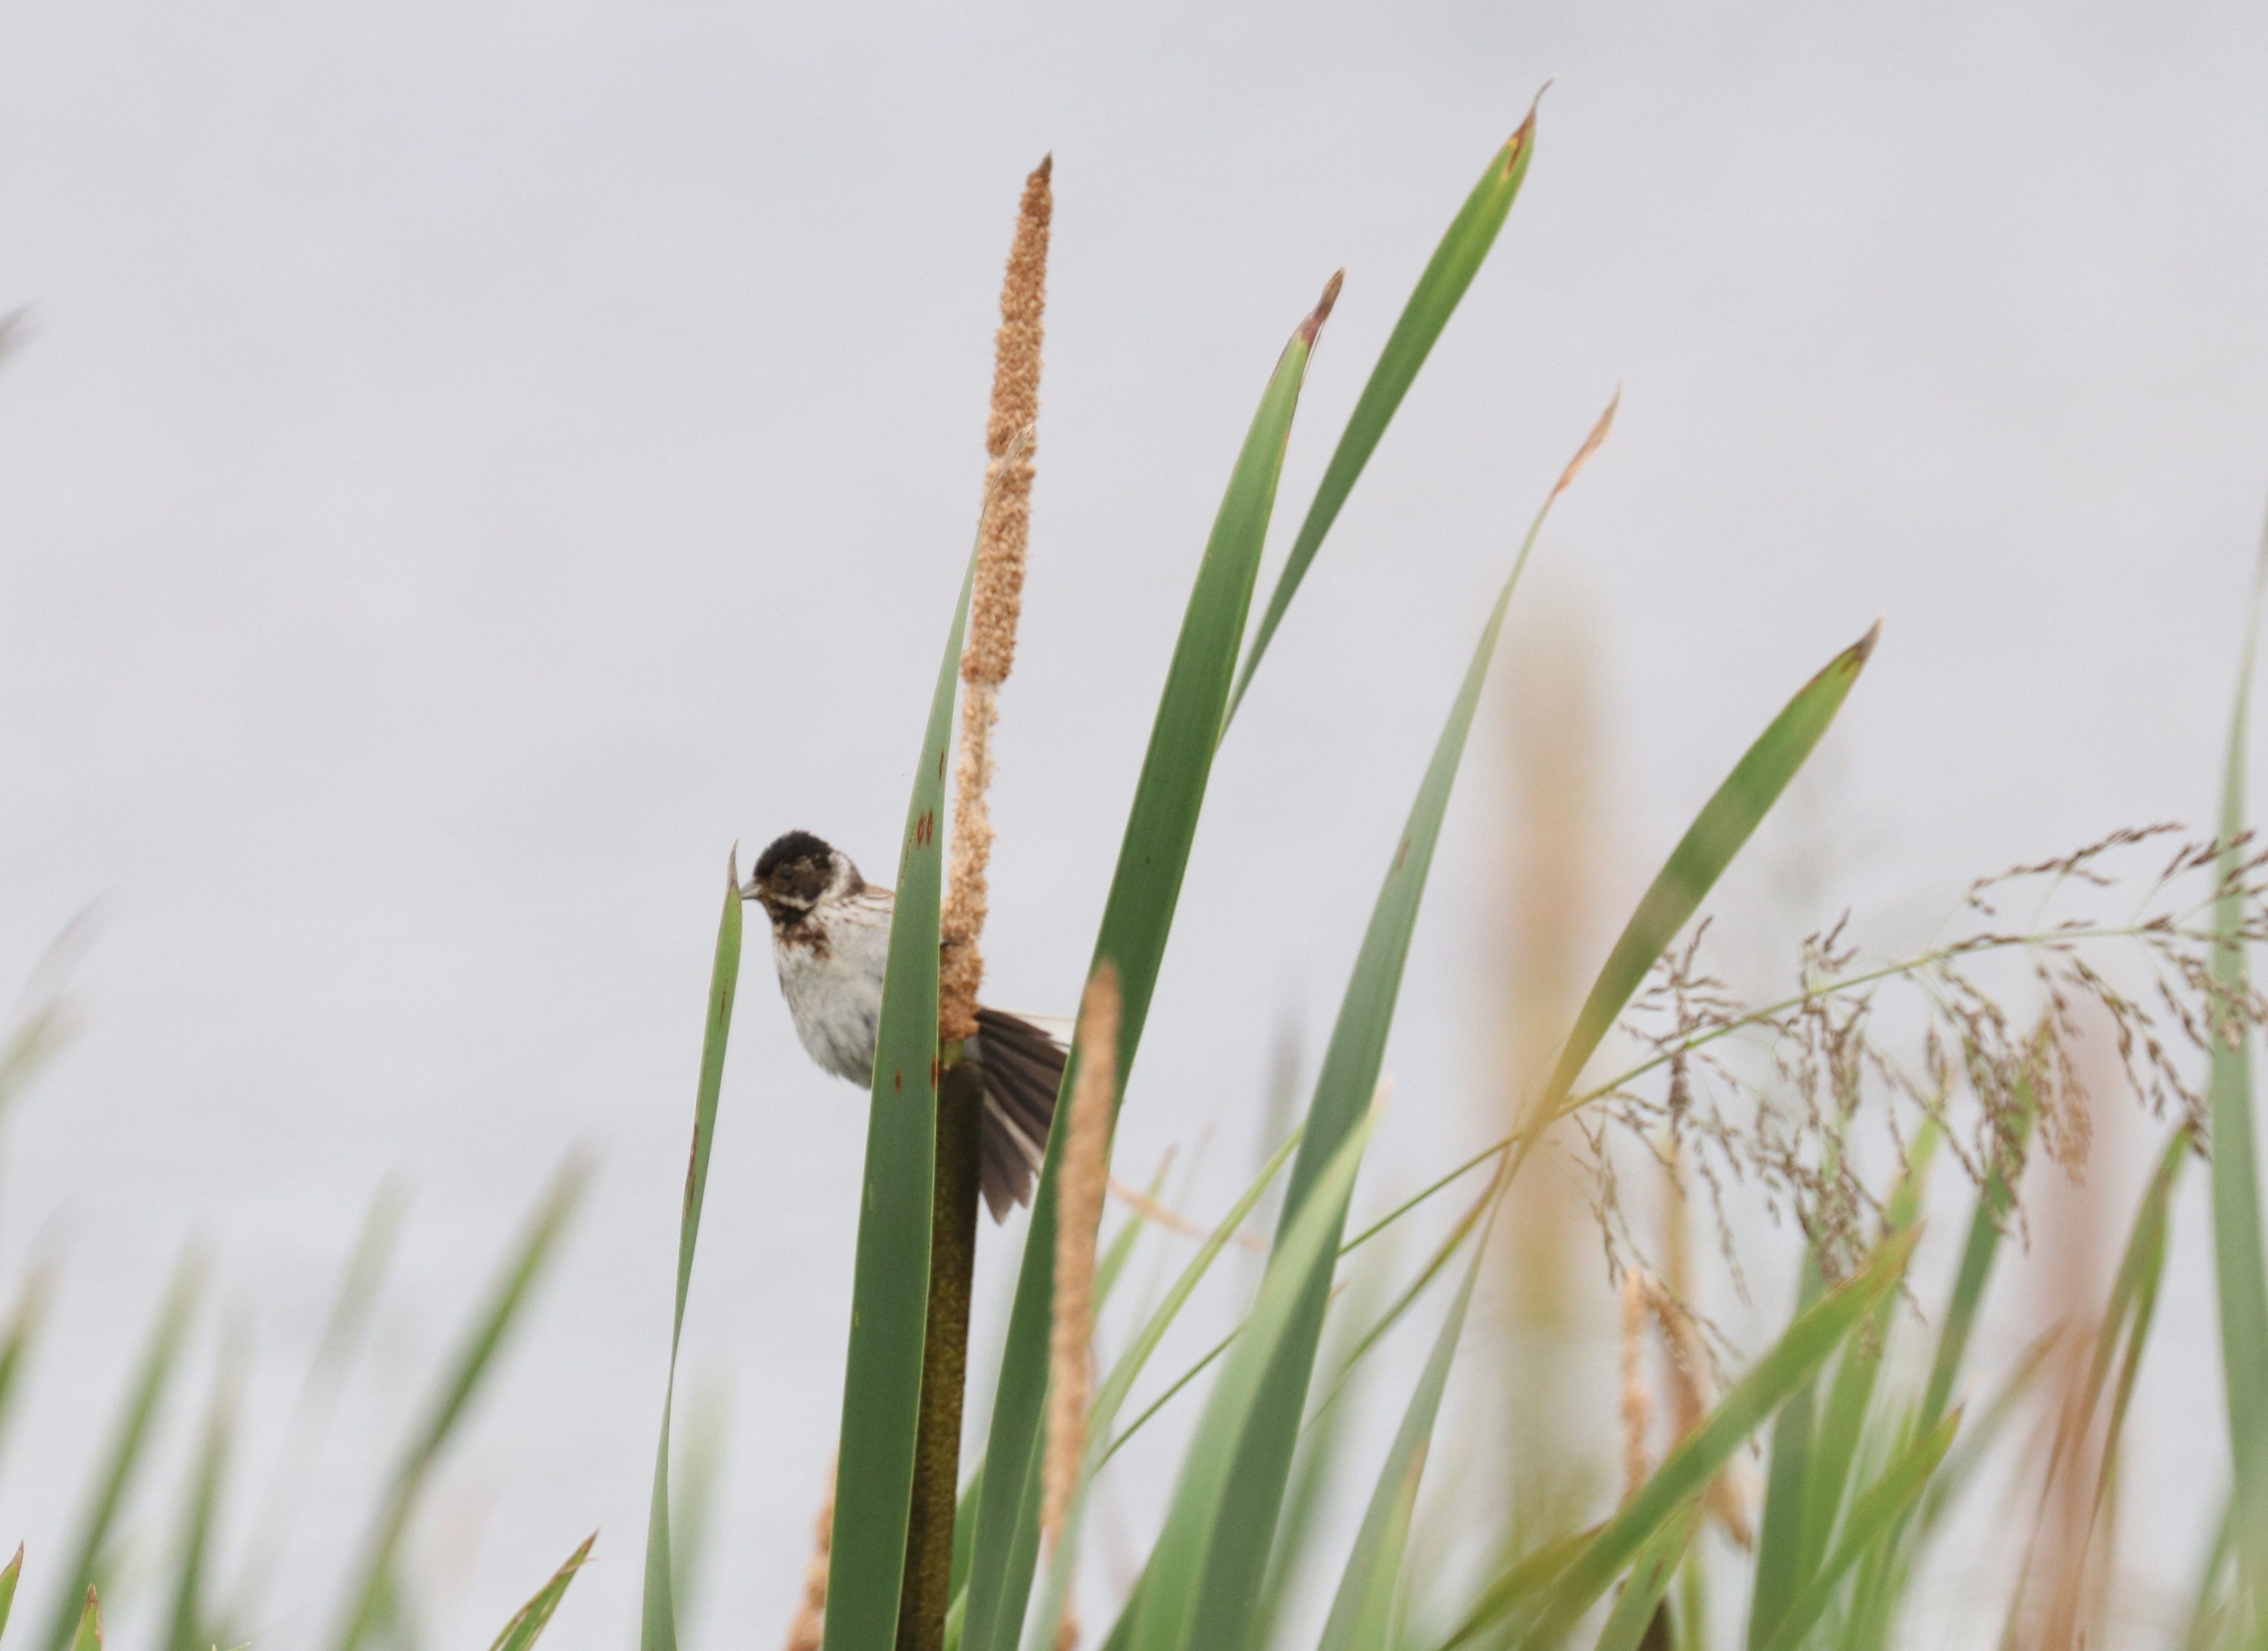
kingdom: Animalia
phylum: Chordata
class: Aves
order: Passeriformes
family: Emberizidae
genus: Emberiza
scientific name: Emberiza schoeniclus
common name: Rørspurv
